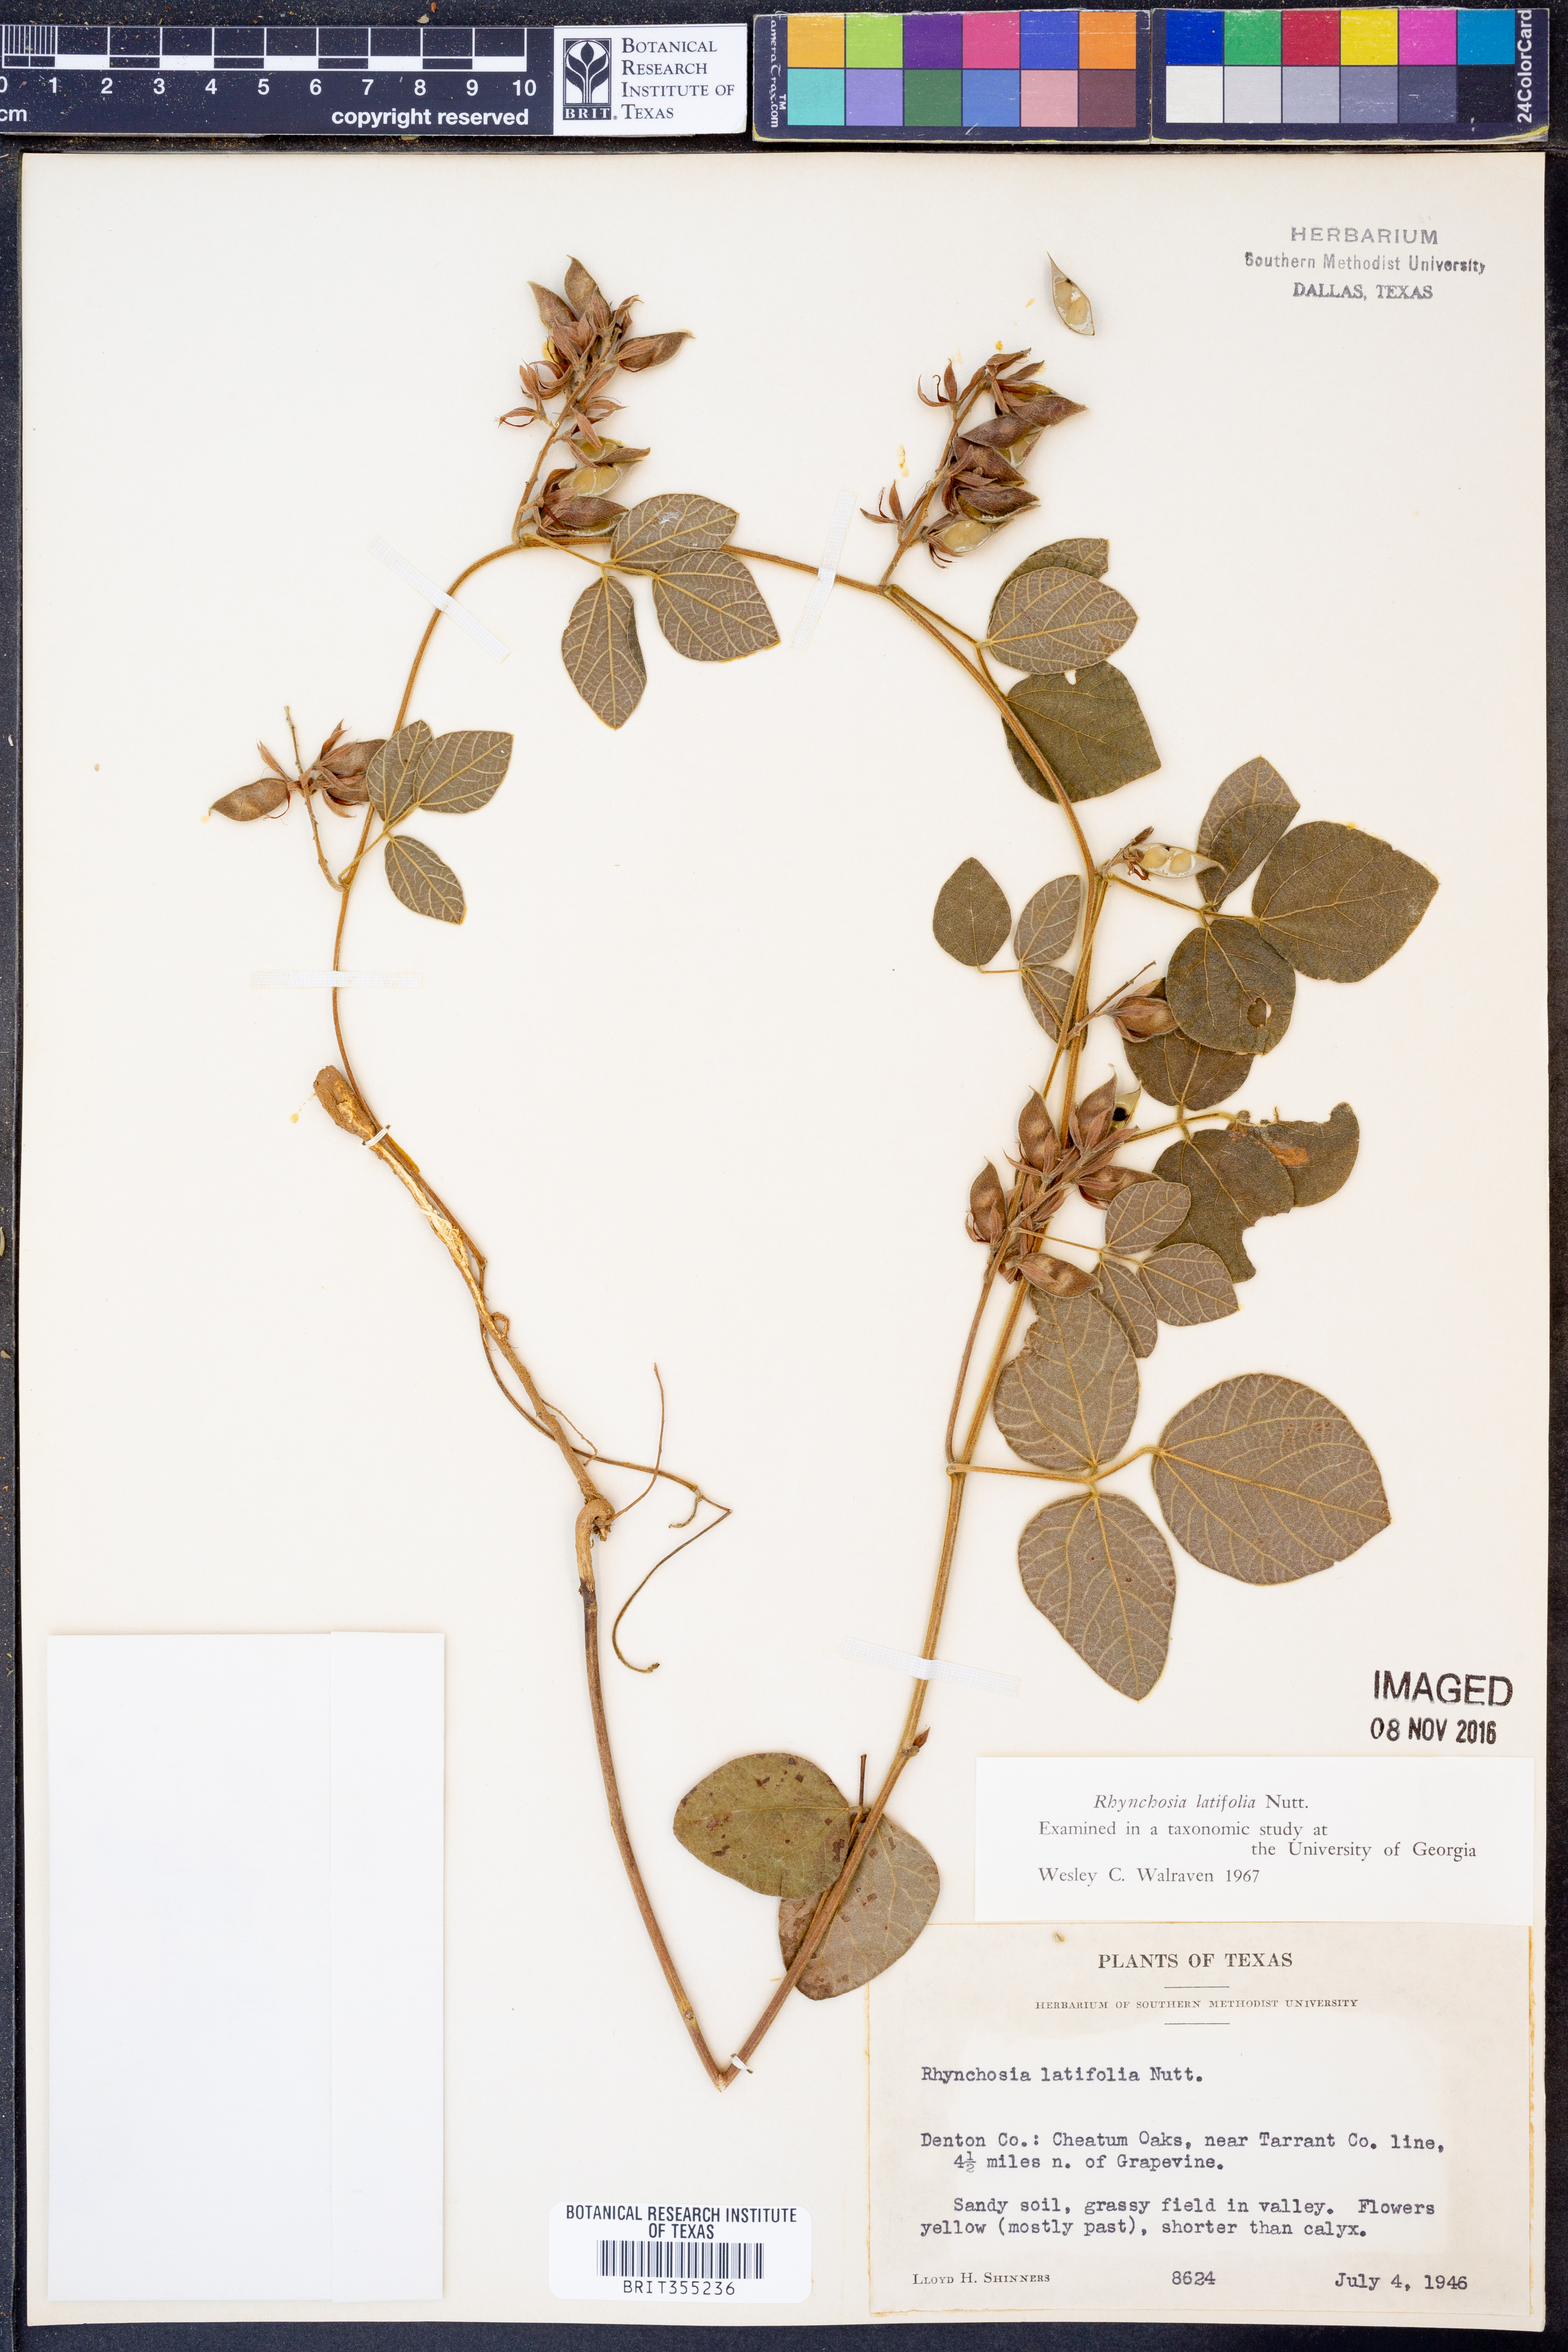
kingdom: Plantae
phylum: Tracheophyta
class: Magnoliopsida
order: Fabales
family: Fabaceae
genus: Rhynchosia
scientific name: Rhynchosia latifolia
